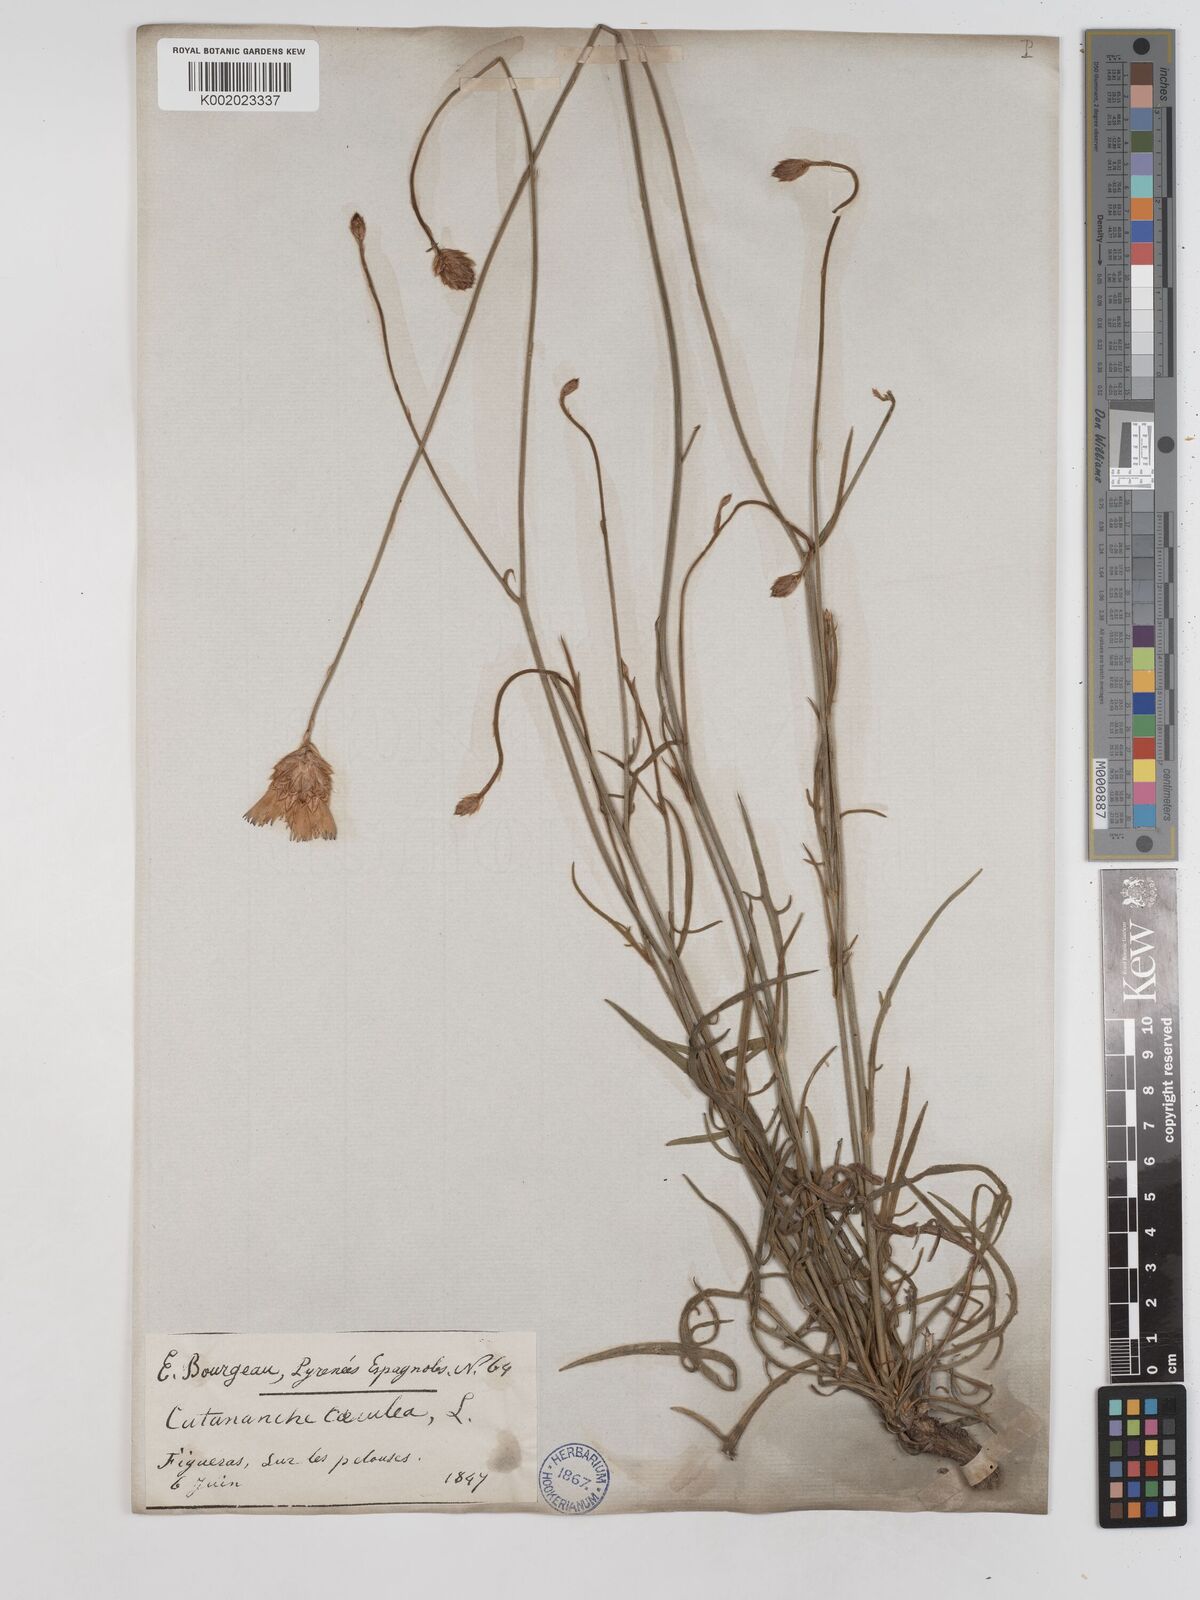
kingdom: Plantae
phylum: Tracheophyta
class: Magnoliopsida
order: Asterales
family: Asteraceae
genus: Catananche
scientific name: Catananche caerulea
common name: Blue cupidone
